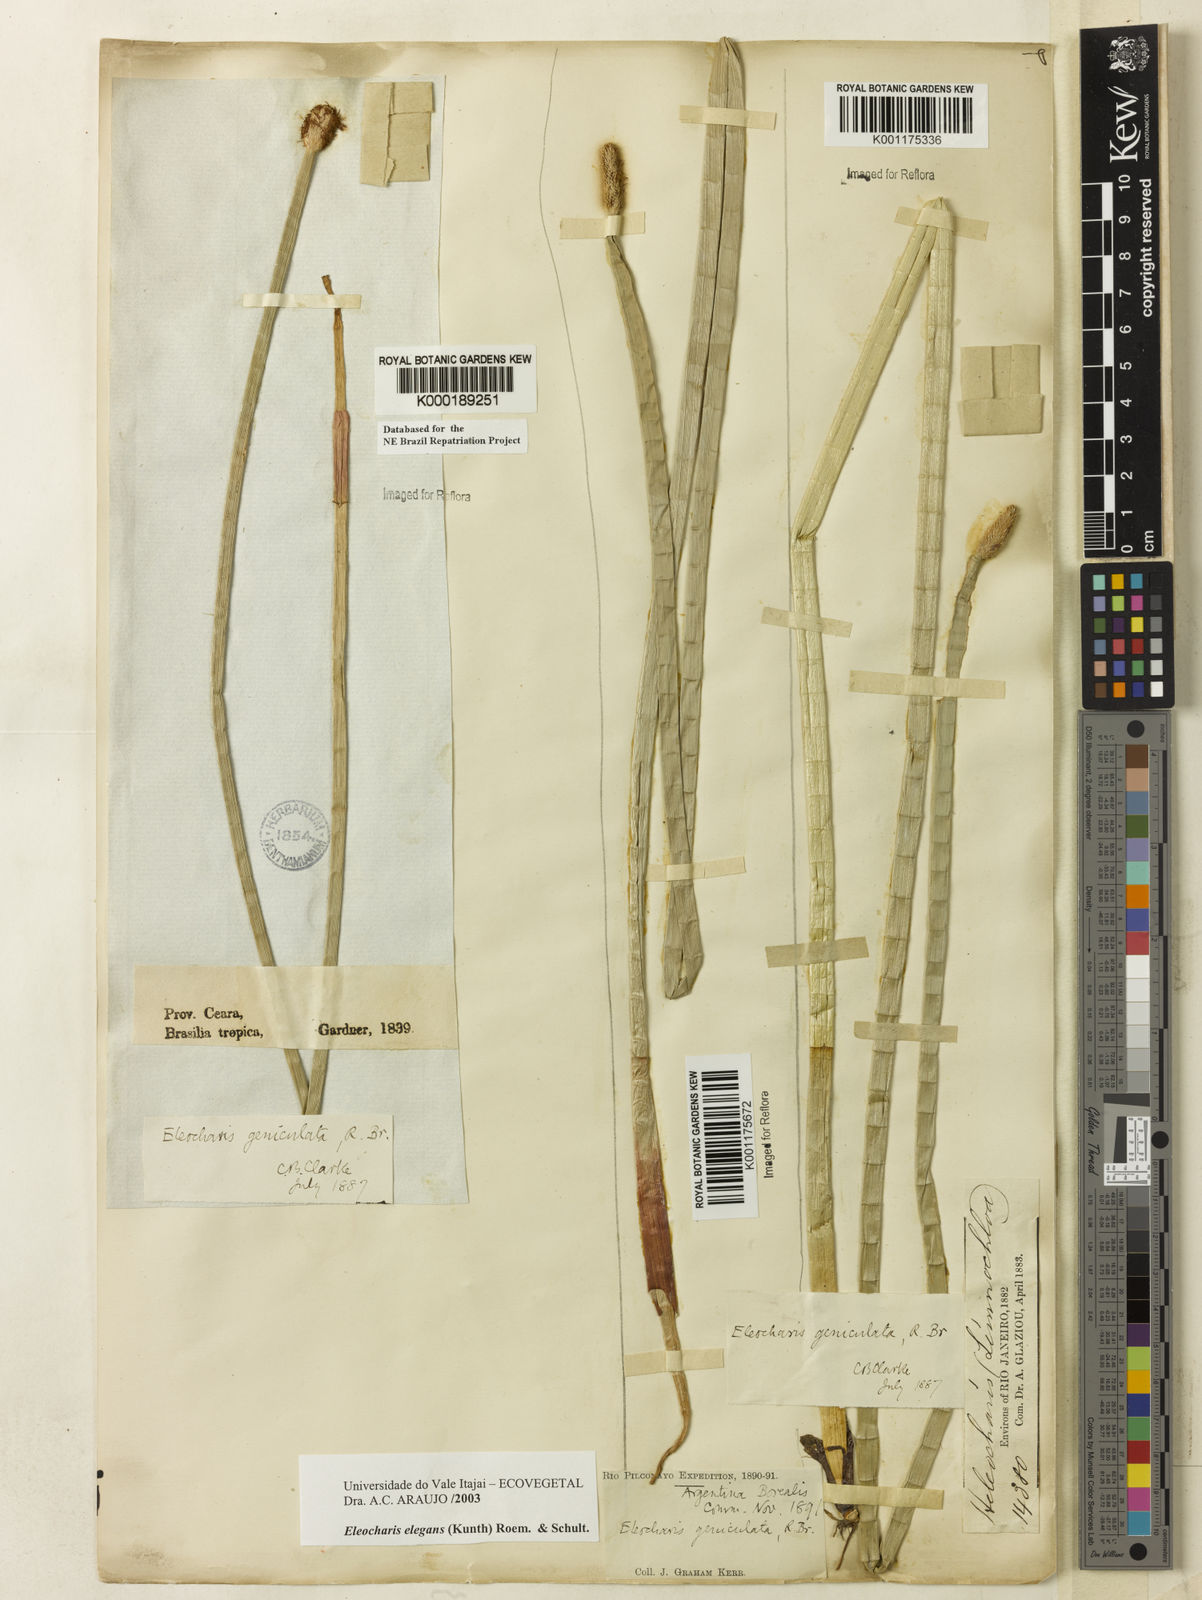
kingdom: Plantae
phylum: Tracheophyta
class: Liliopsida
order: Poales
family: Cyperaceae
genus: Eleocharis
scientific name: Eleocharis elegans
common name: Elegant spike-rush
